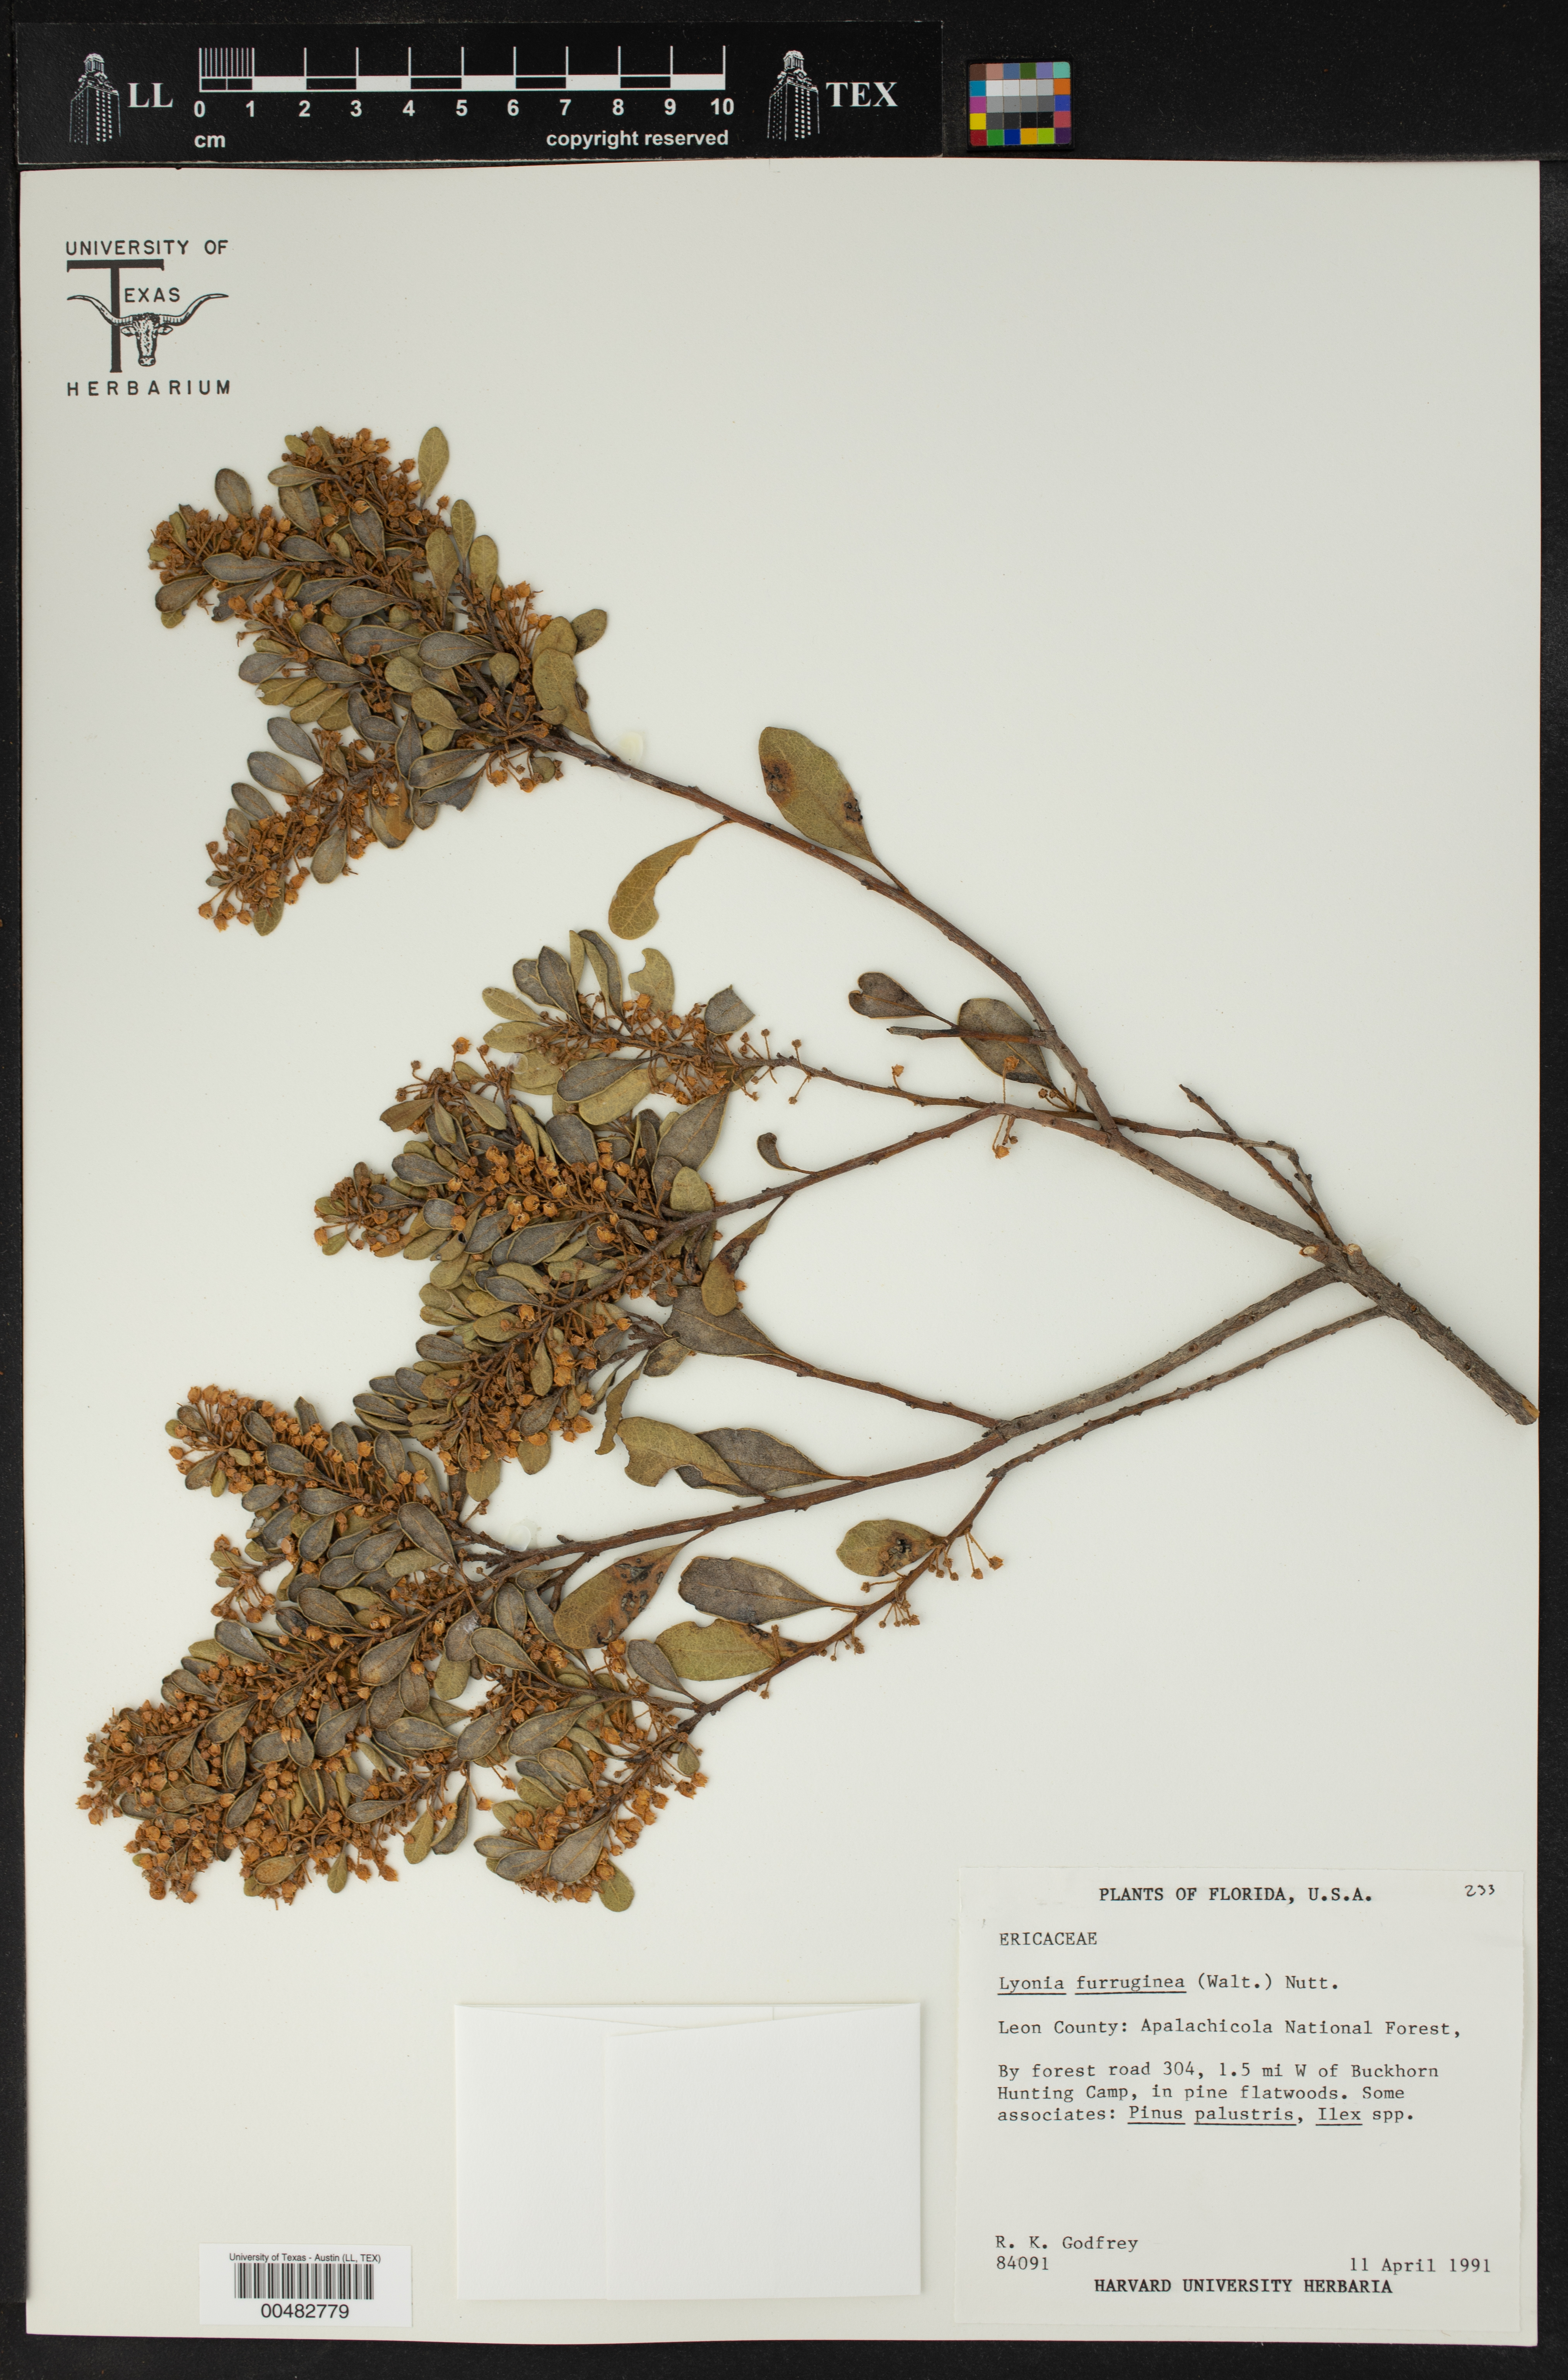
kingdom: Plantae
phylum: Tracheophyta
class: Magnoliopsida
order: Ericales
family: Ericaceae
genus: Lyonia
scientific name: Lyonia truncata
